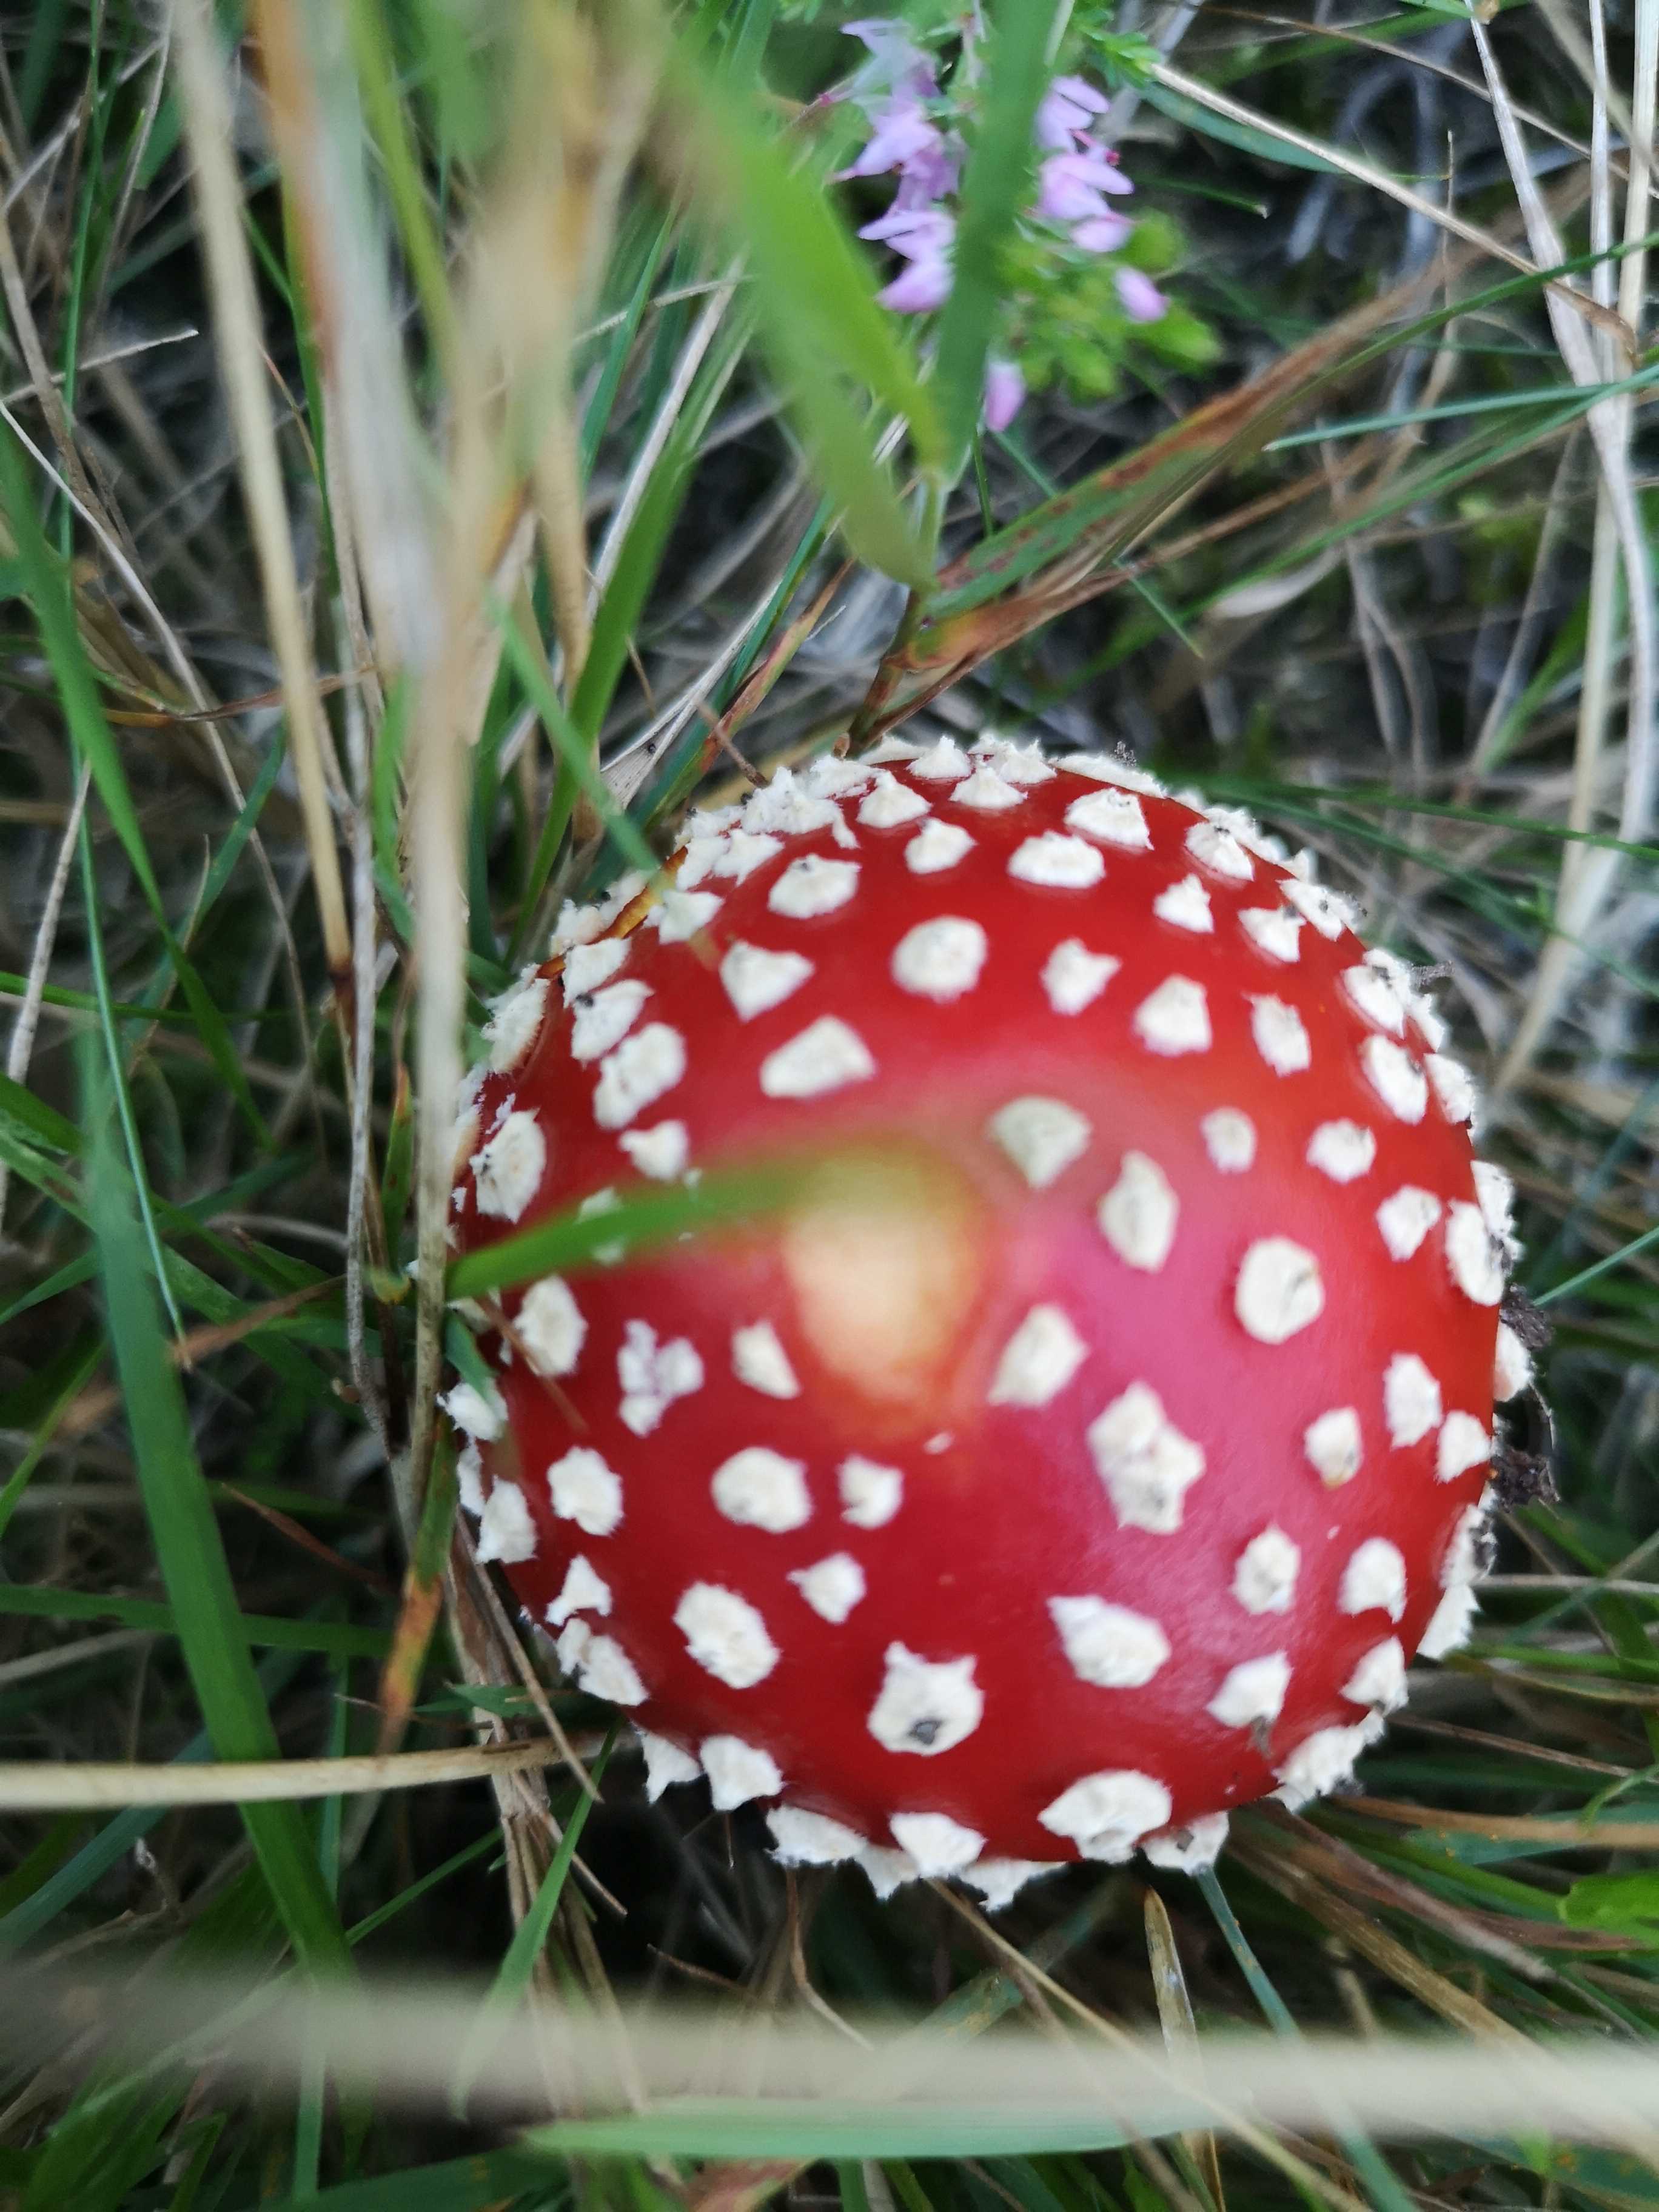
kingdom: Fungi
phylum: Basidiomycota
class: Agaricomycetes
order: Agaricales
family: Amanitaceae
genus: Amanita
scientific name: Amanita muscaria
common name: rød fluesvamp
